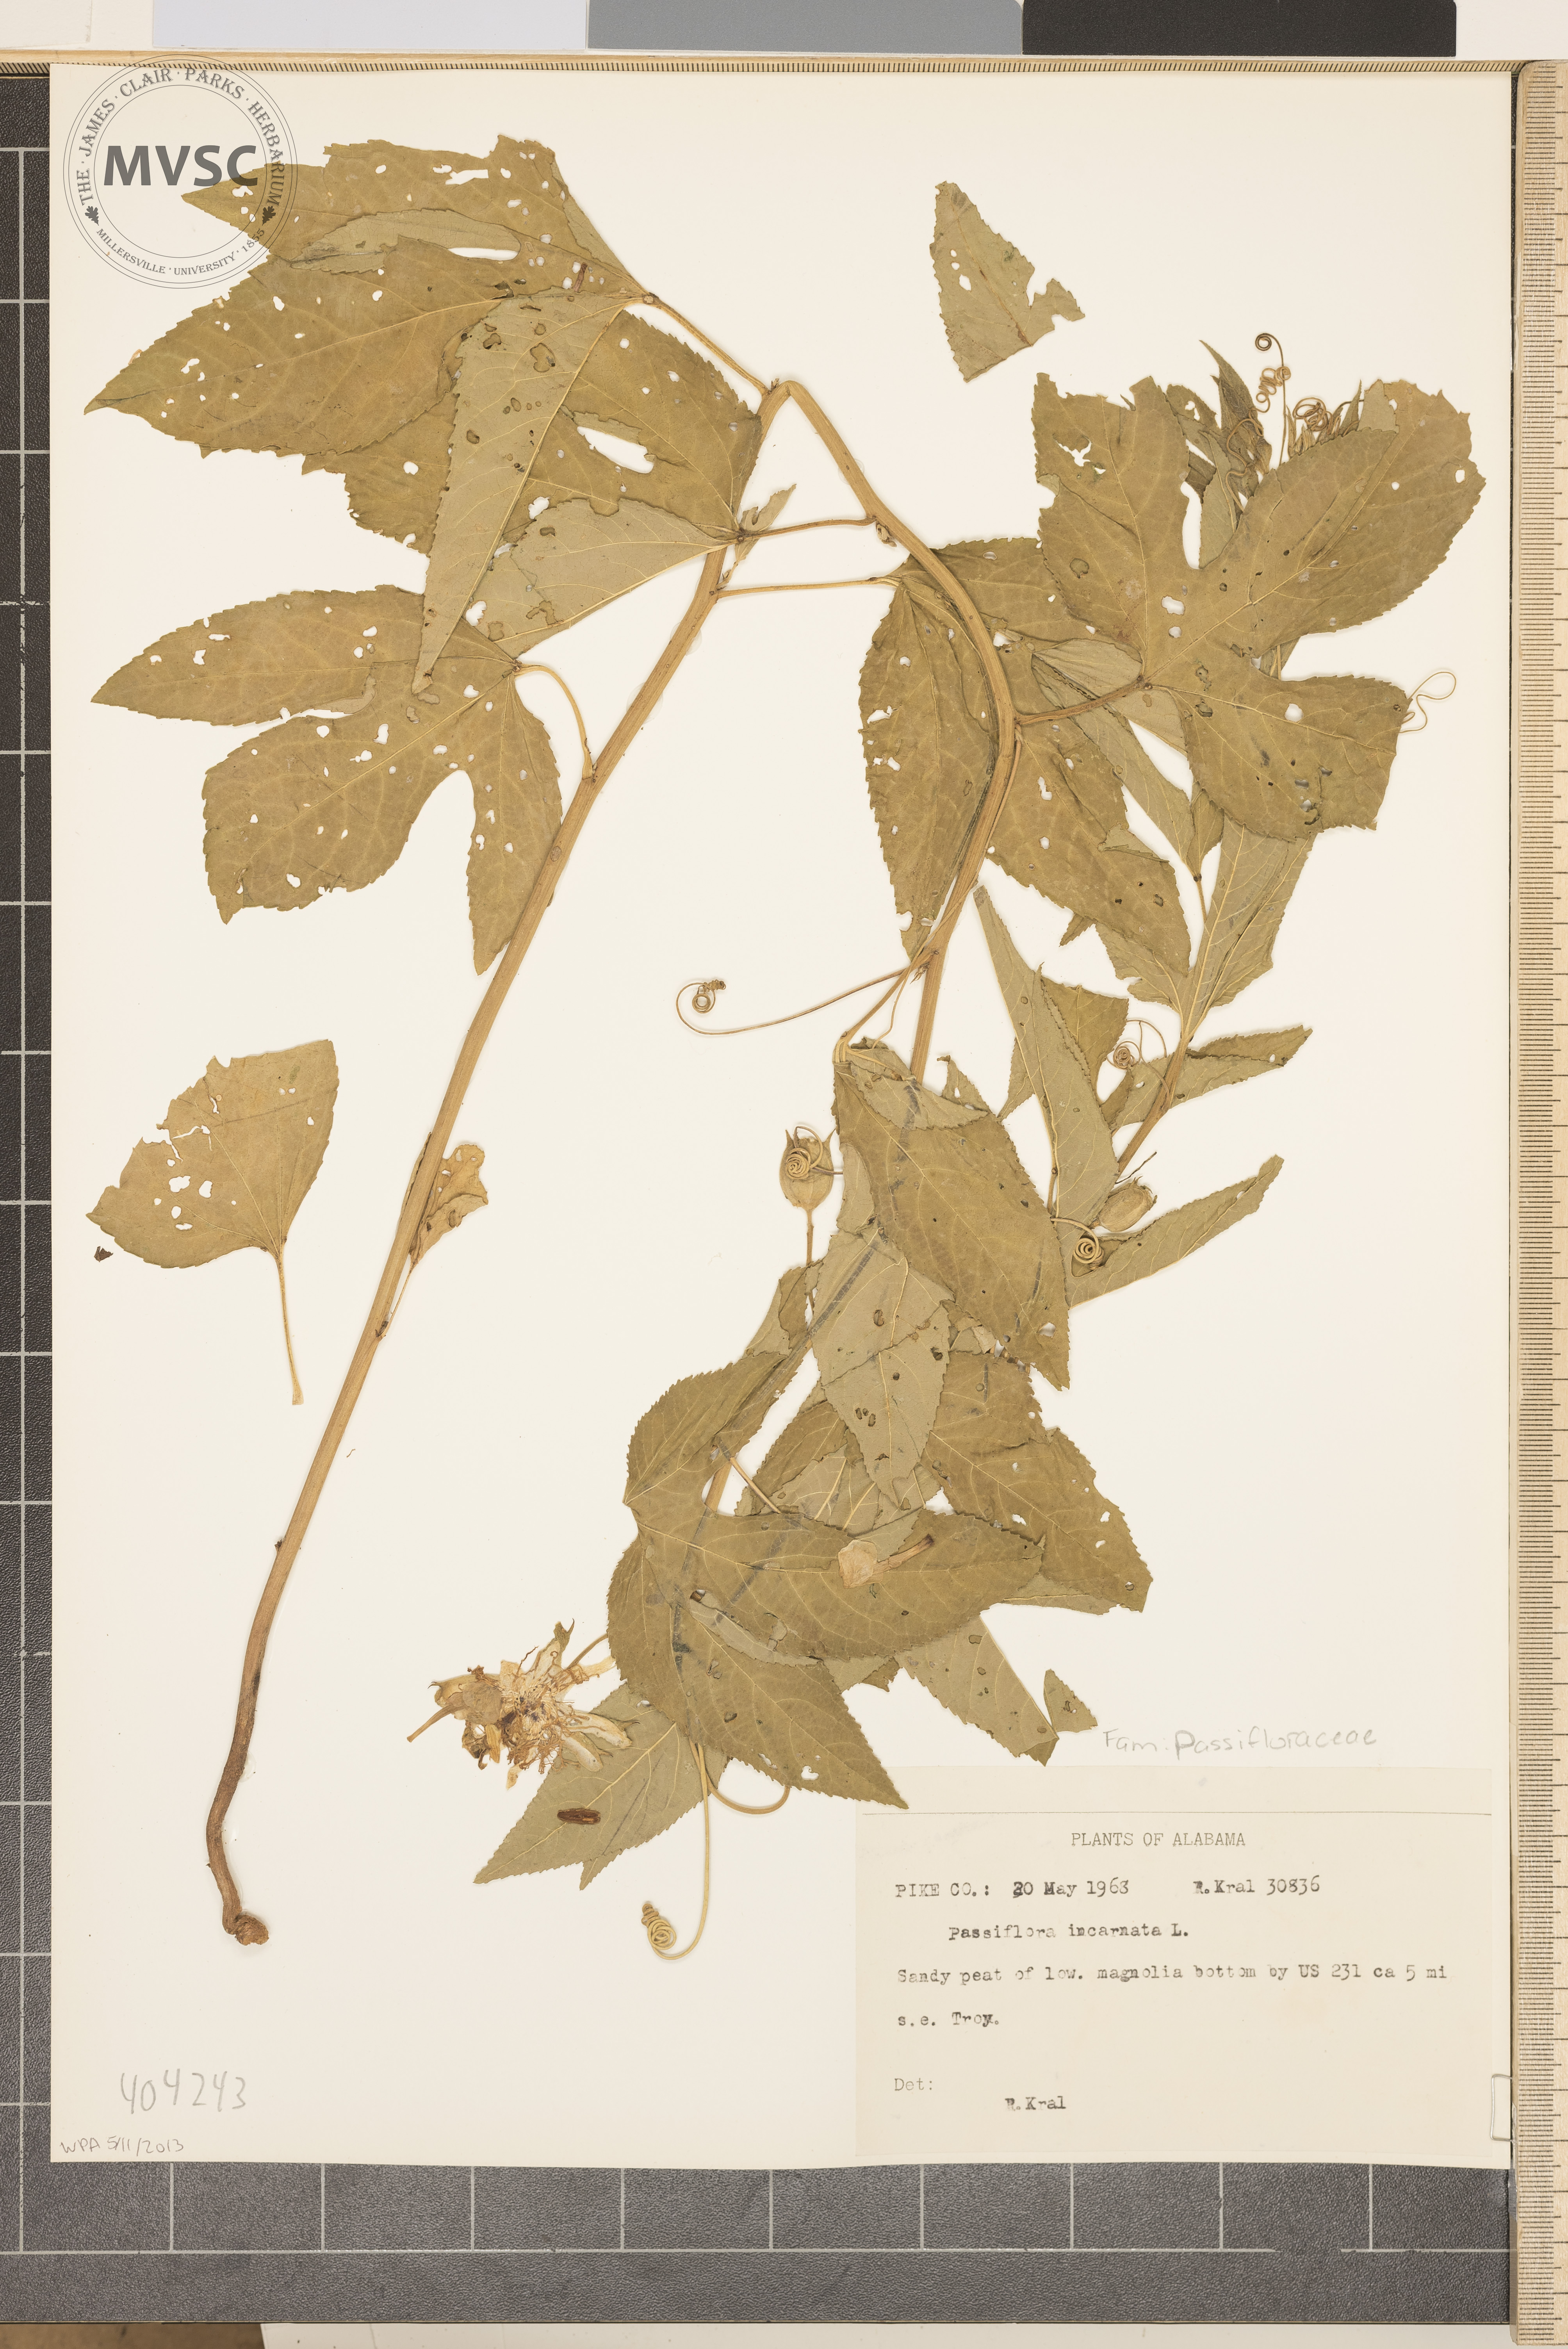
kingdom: Plantae
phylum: Tracheophyta
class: Magnoliopsida
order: Malpighiales
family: Passifloraceae
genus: Passiflora
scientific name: Passiflora incarnata
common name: Apricot-vine
